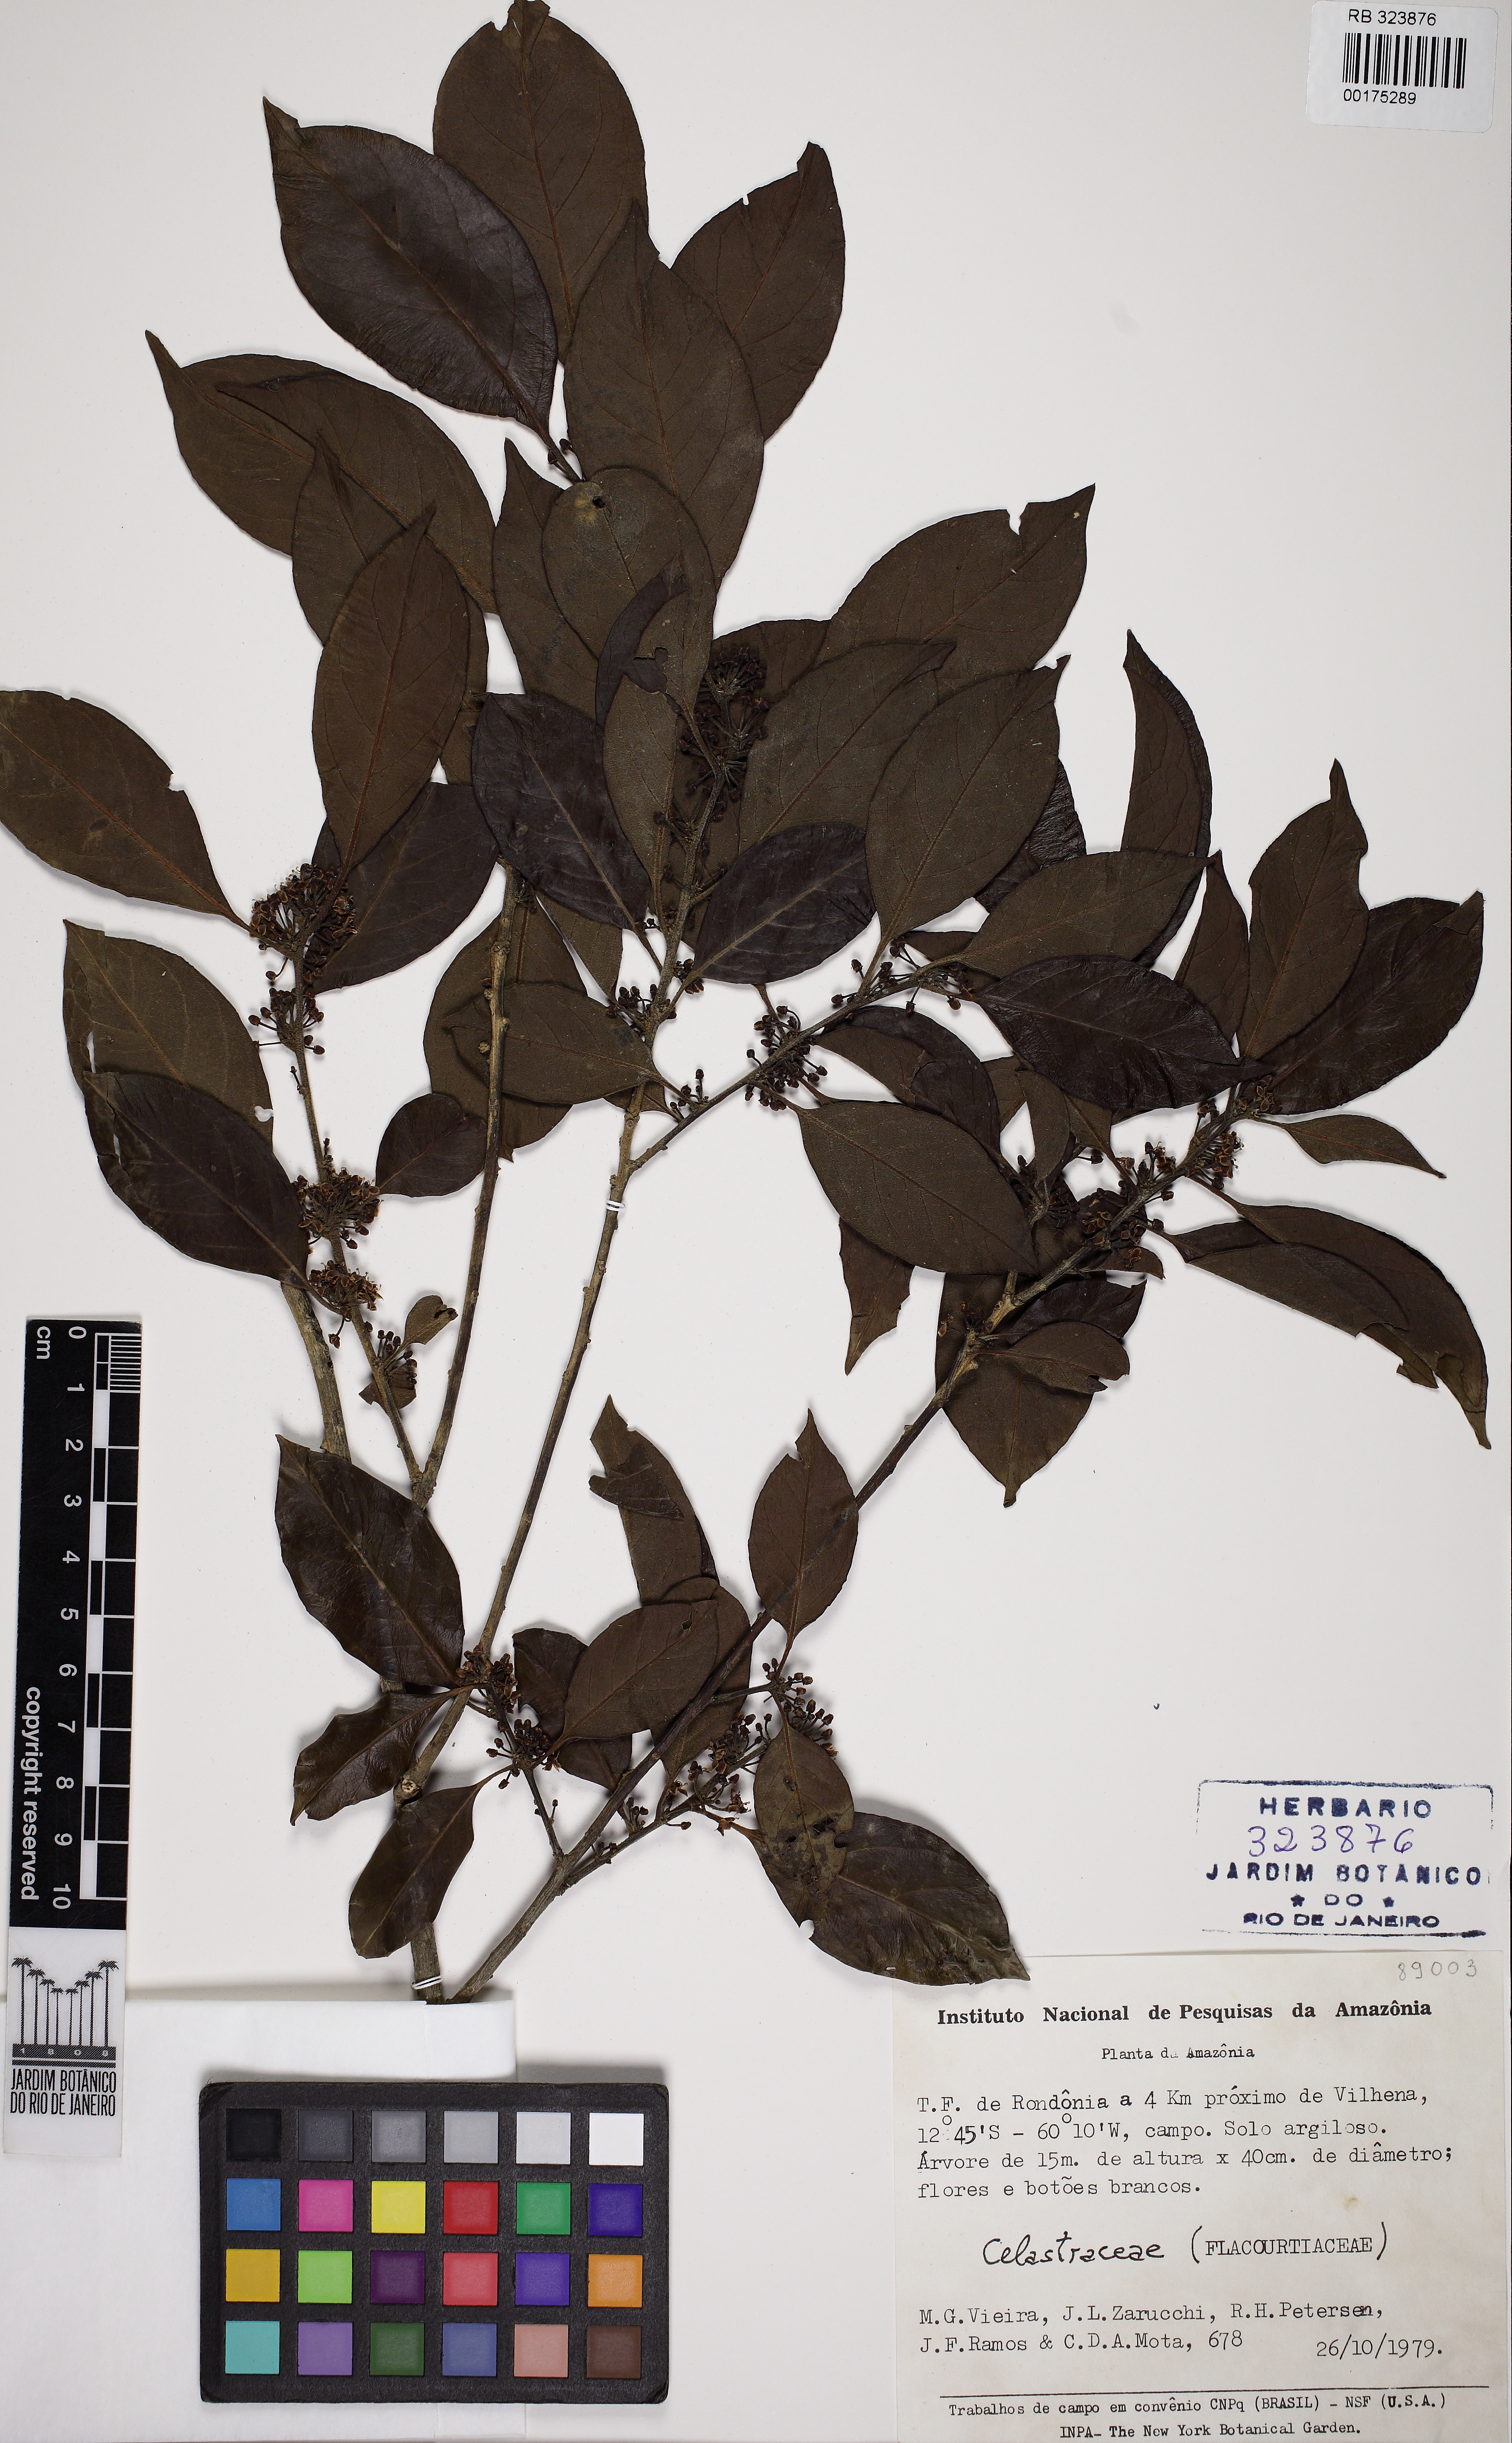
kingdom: Plantae
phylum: Tracheophyta
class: Magnoliopsida
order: Aquifoliales
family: Aquifoliaceae
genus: Ilex
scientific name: Ilex
